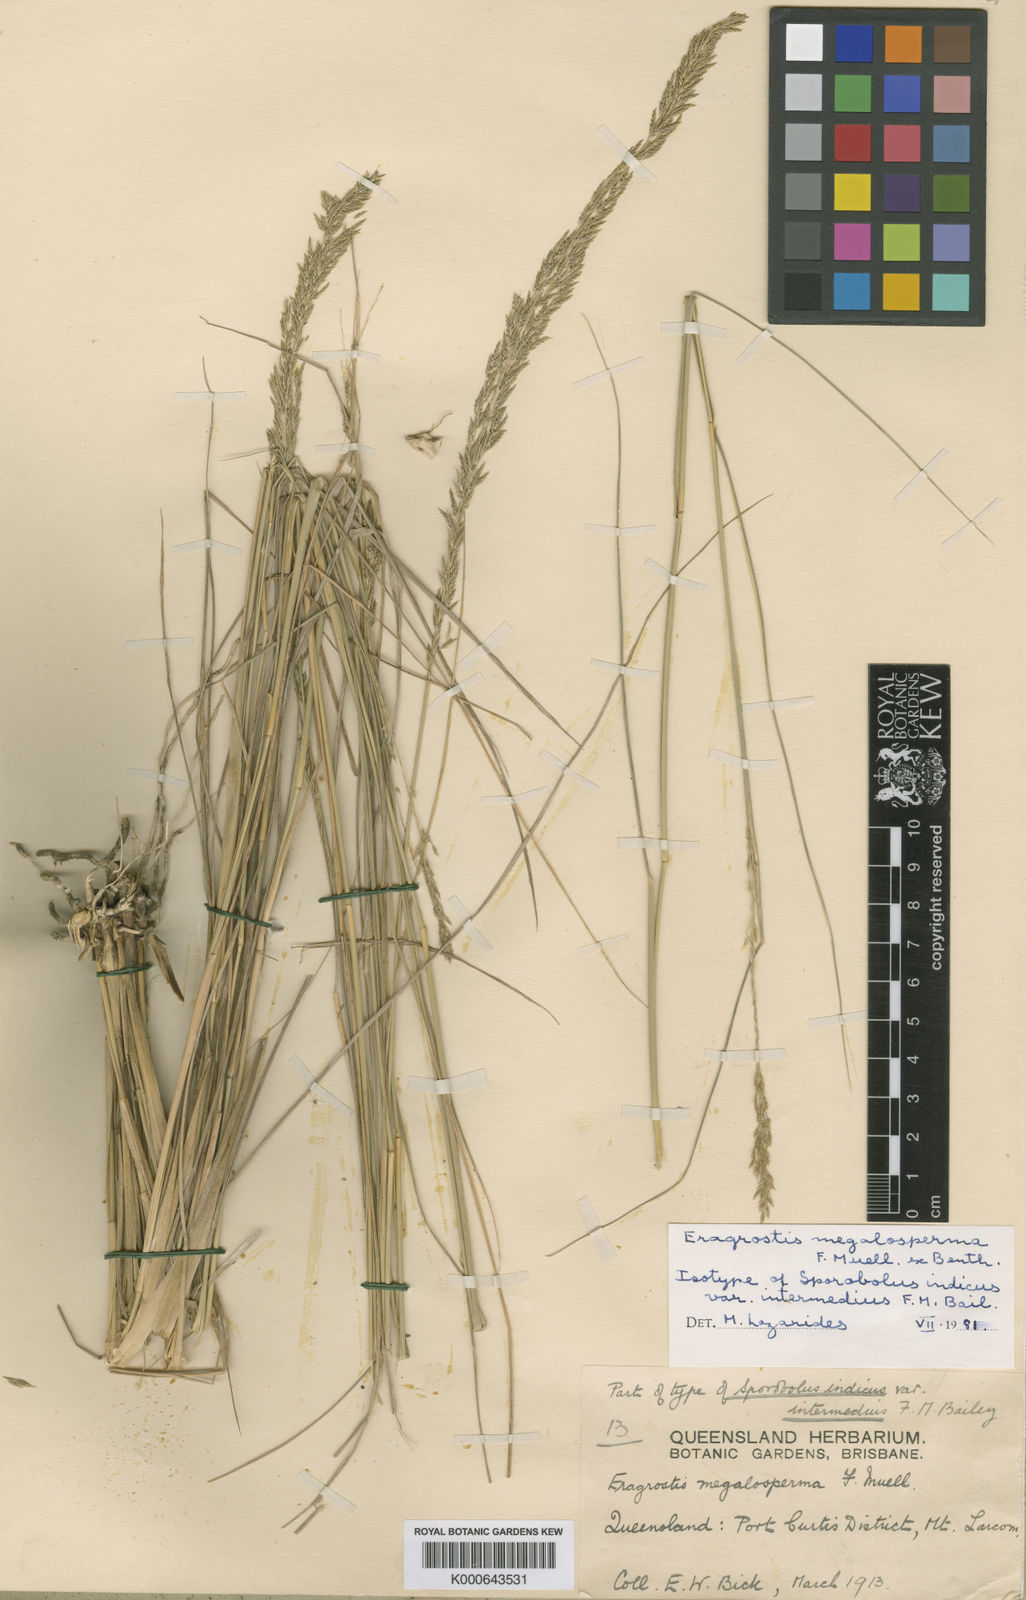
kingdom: Plantae
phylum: Tracheophyta
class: Liliopsida
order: Poales
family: Poaceae
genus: Sporobolus
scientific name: Sporobolus megalospermus
